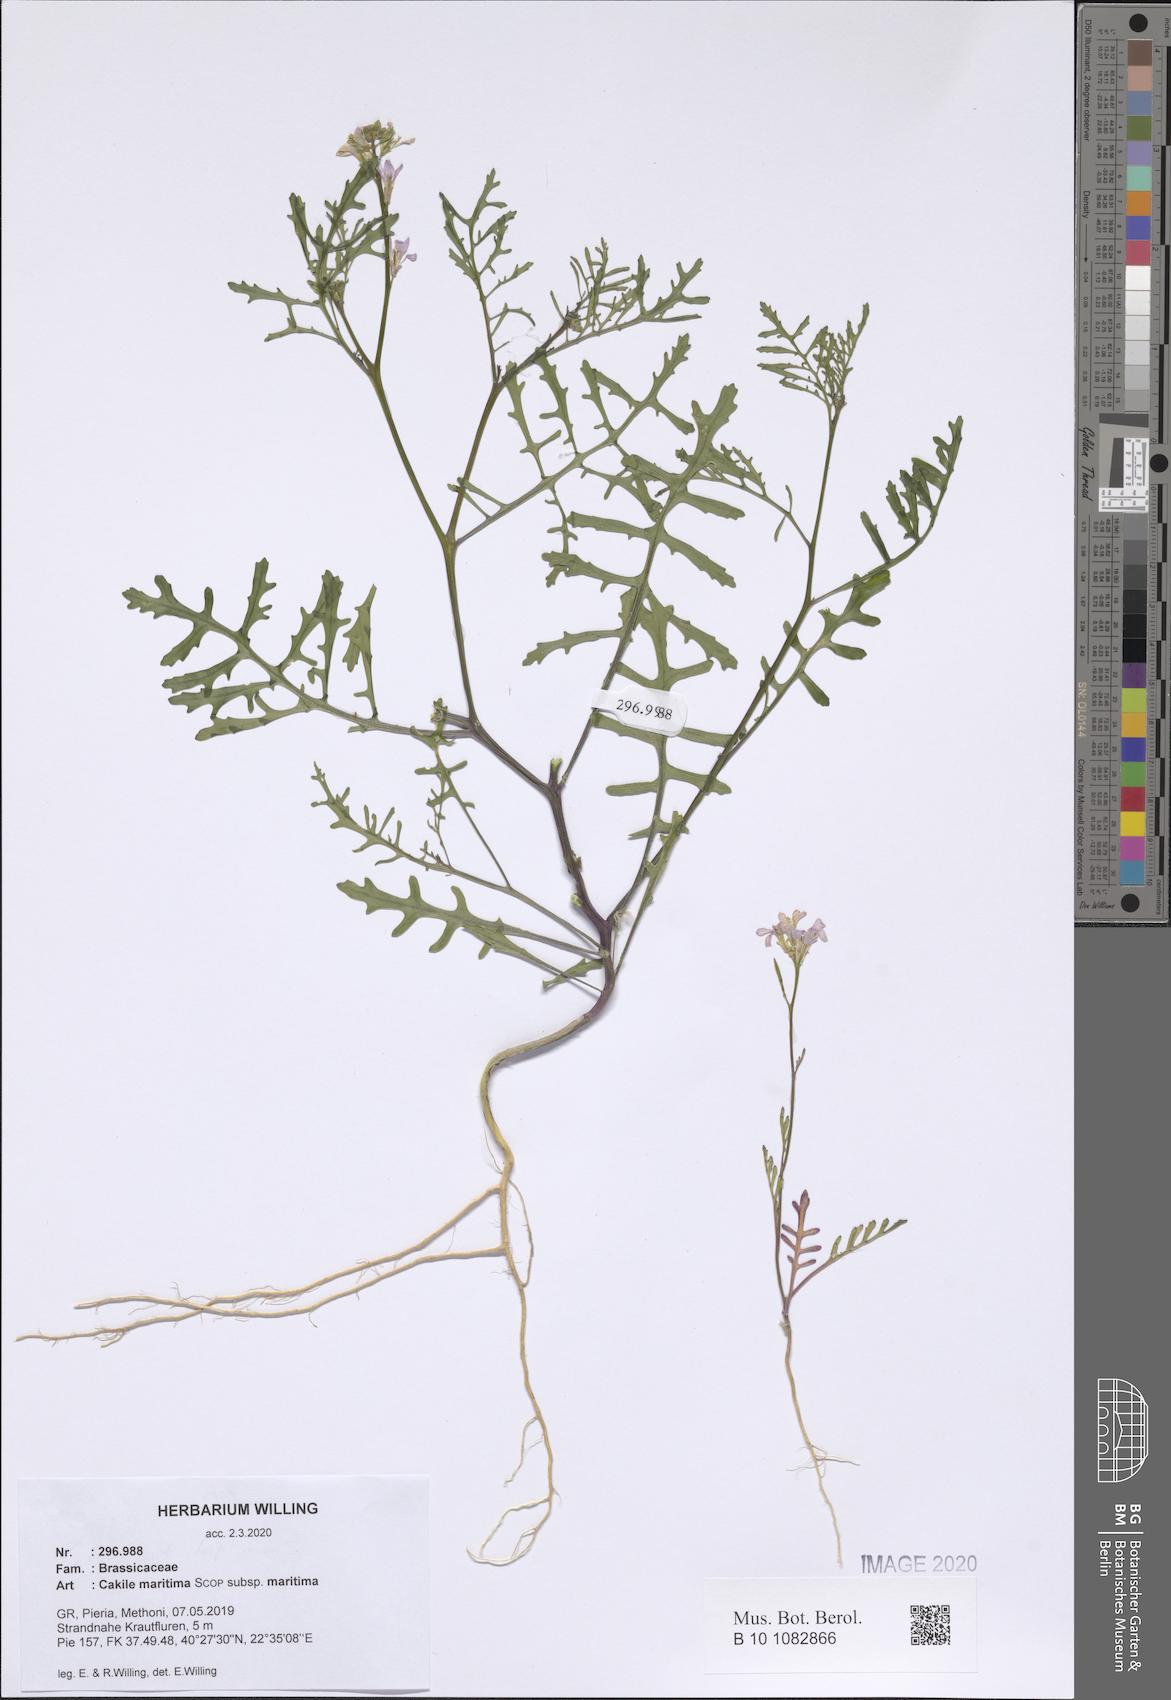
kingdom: Plantae
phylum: Tracheophyta
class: Magnoliopsida
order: Brassicales
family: Brassicaceae
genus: Cakile
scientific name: Cakile maritima
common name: Sea rocket
